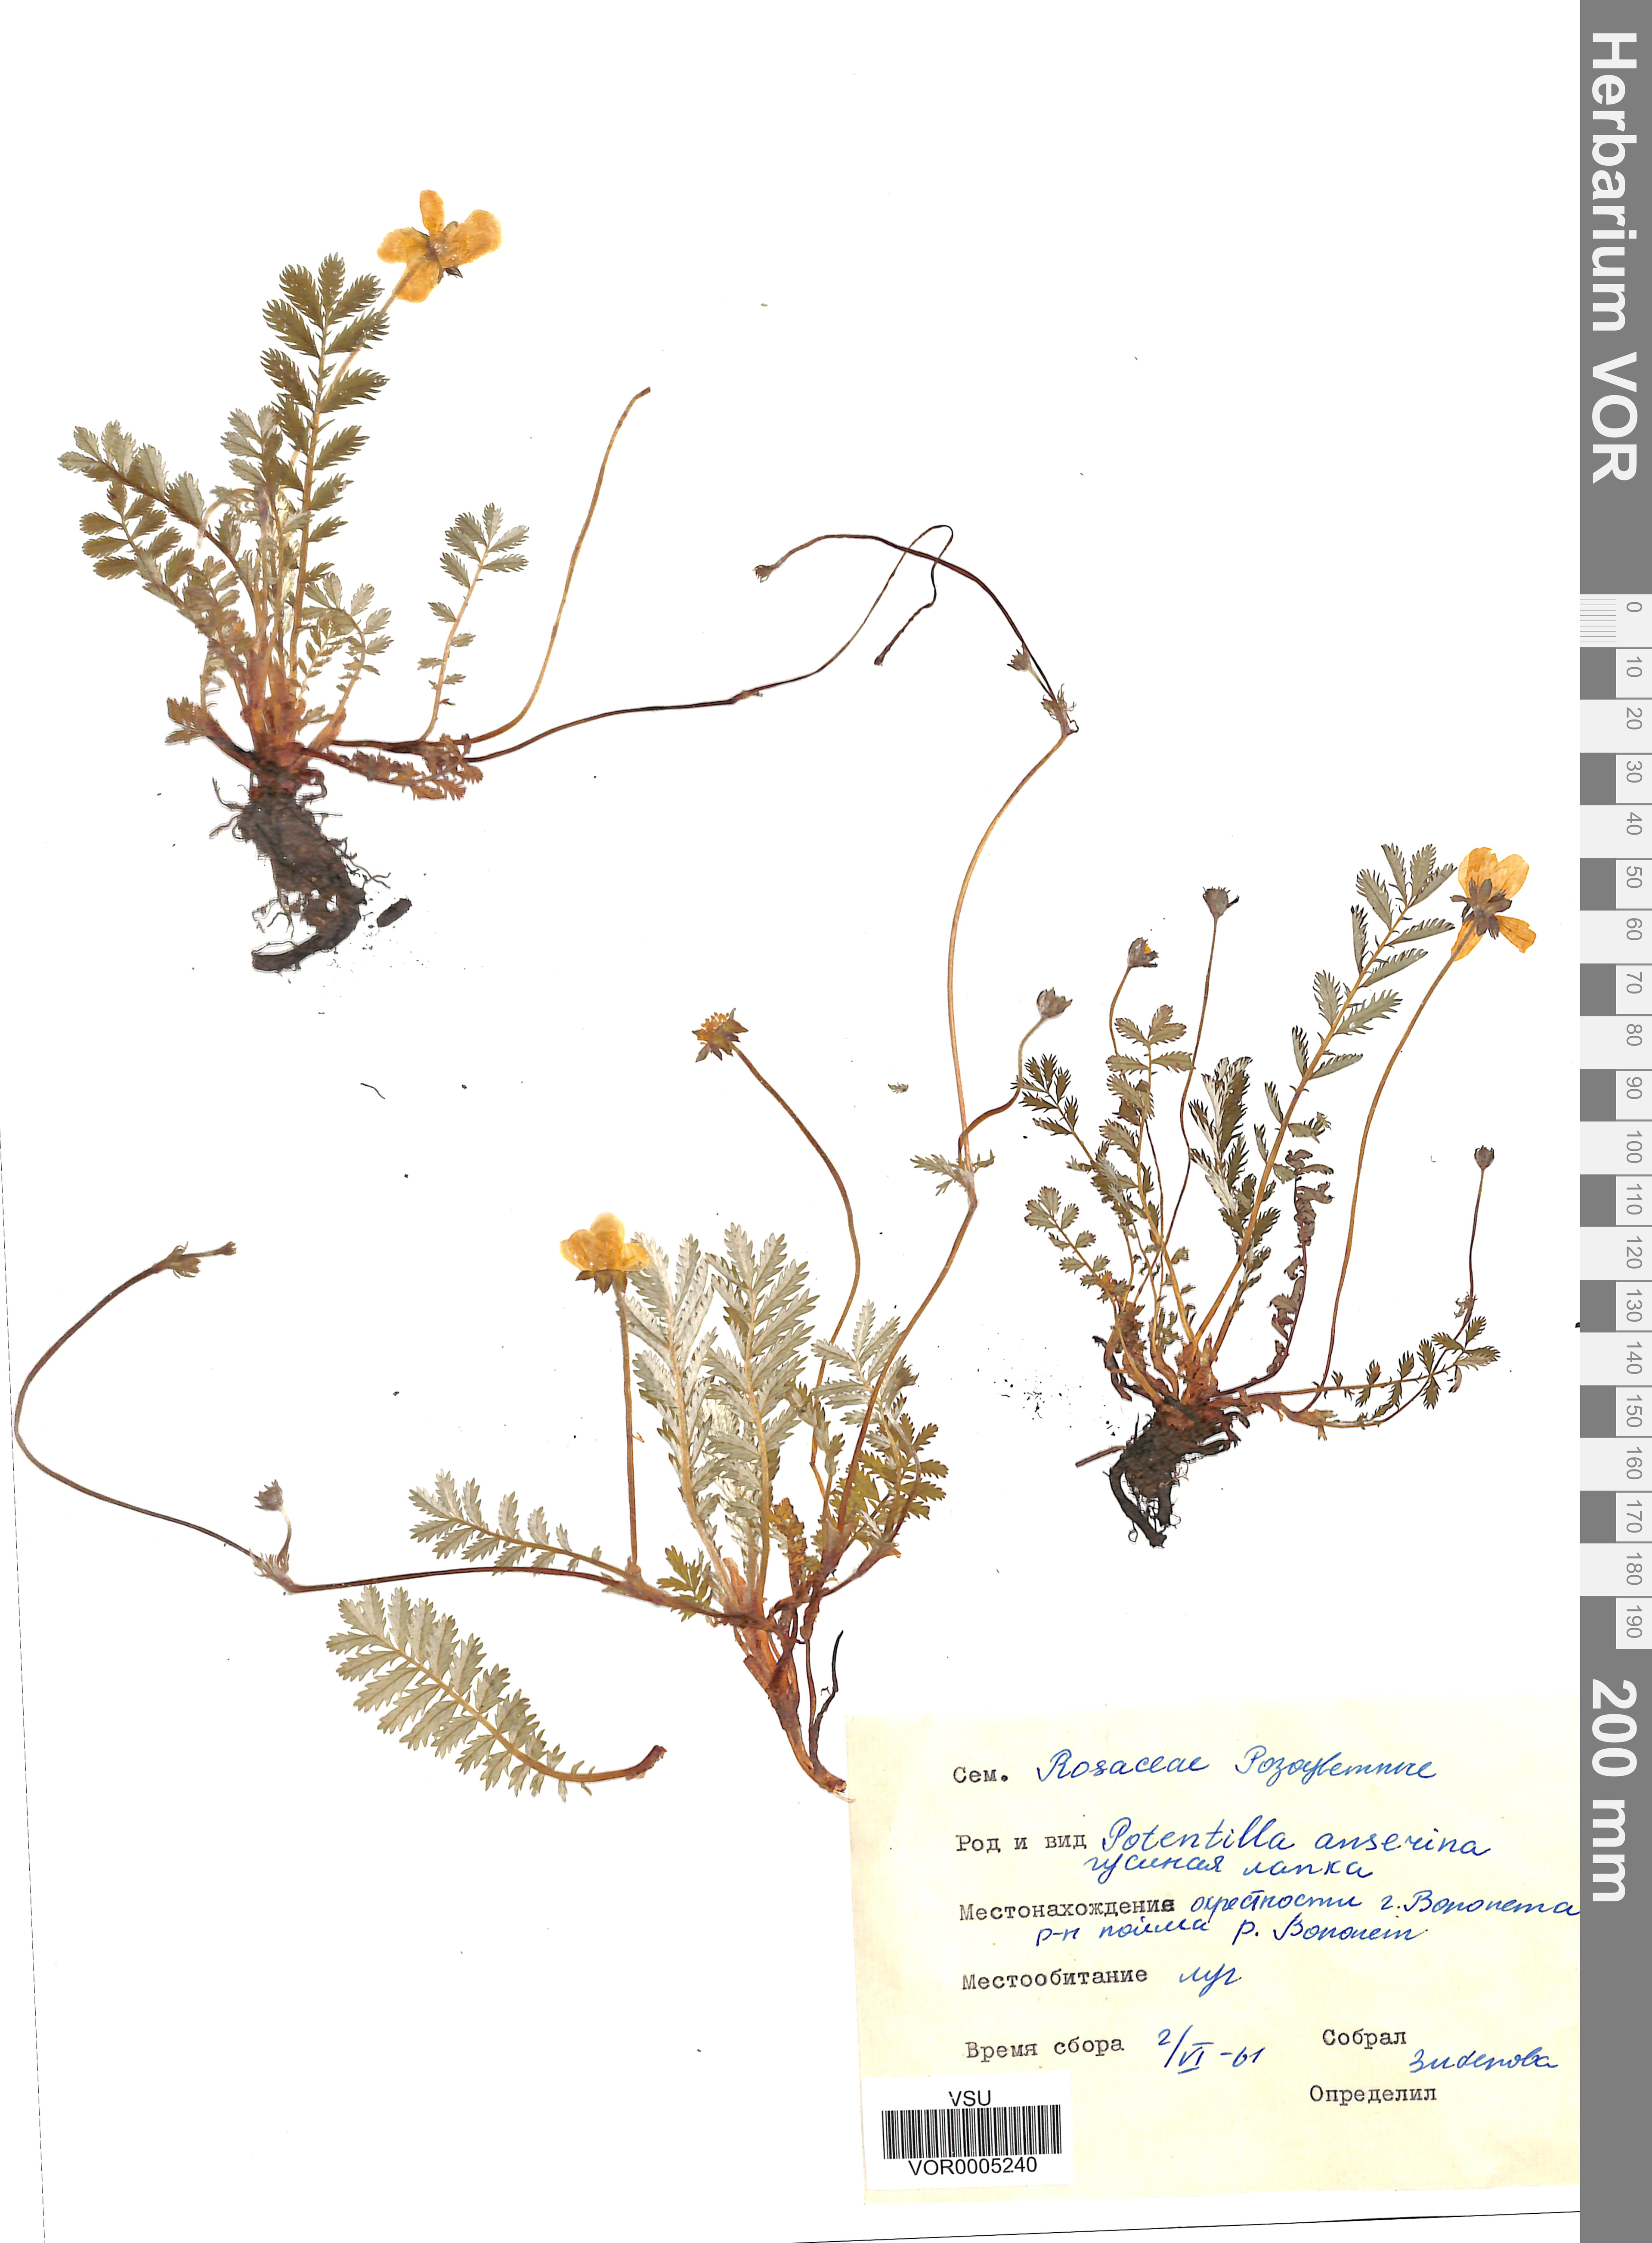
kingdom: Plantae
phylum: Tracheophyta
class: Magnoliopsida
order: Rosales
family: Rosaceae
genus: Argentina
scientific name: Argentina anserina
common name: Common silverweed
